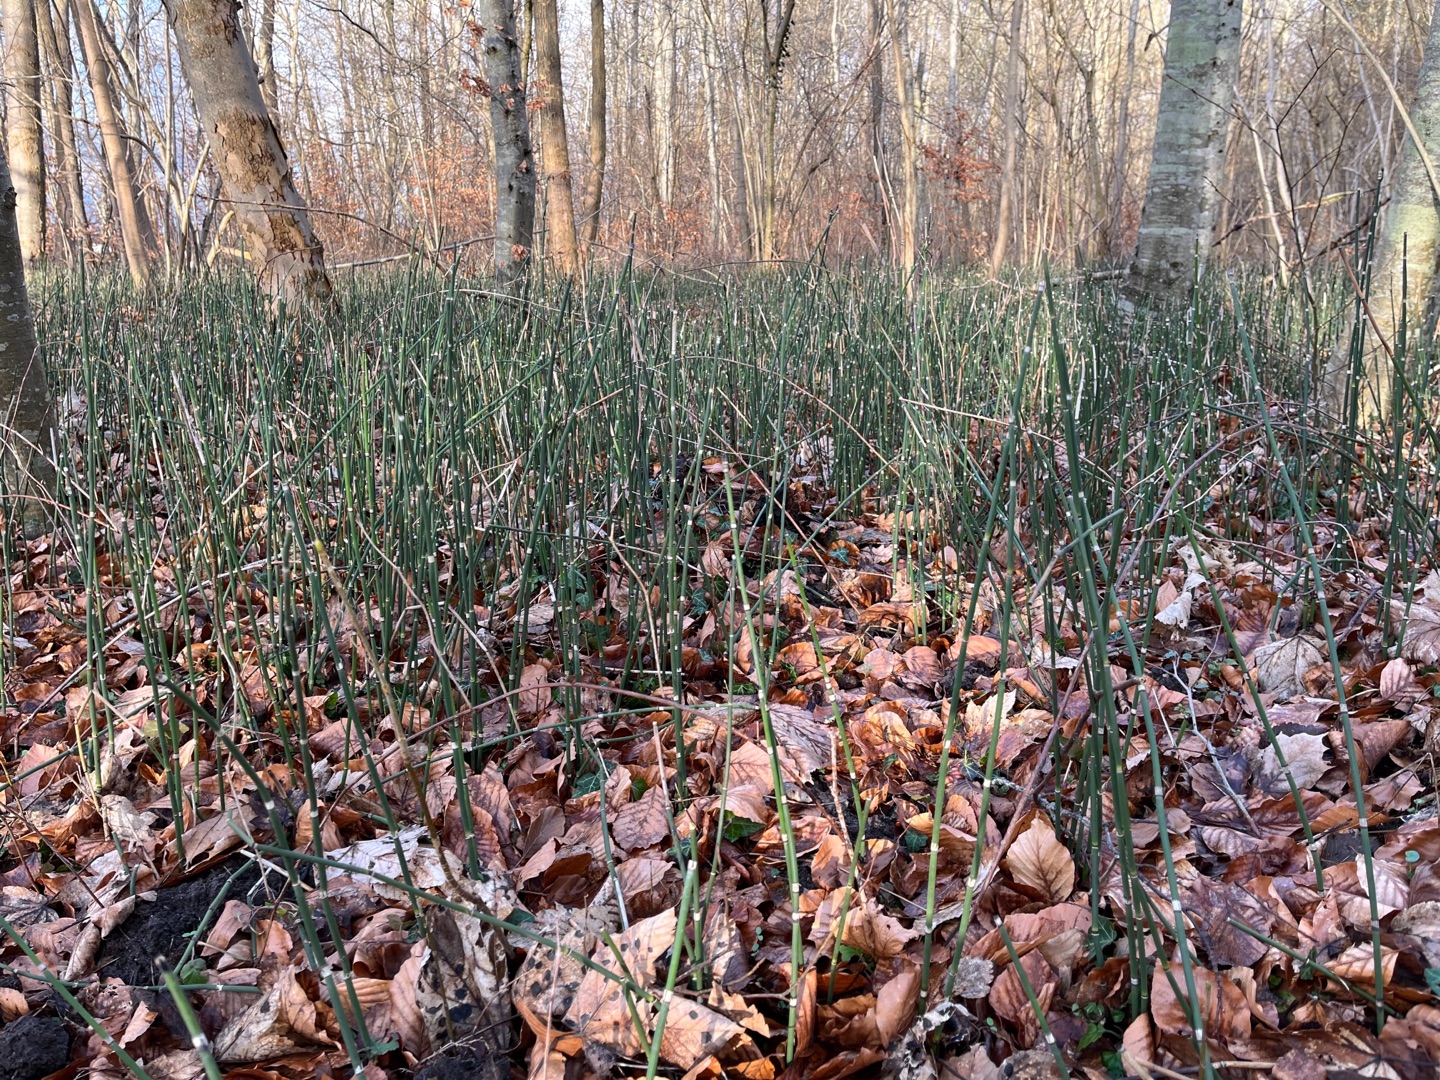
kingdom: Plantae
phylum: Tracheophyta
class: Polypodiopsida
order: Equisetales
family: Equisetaceae
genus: Equisetum
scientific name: Equisetum hyemale
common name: Skavgræs
